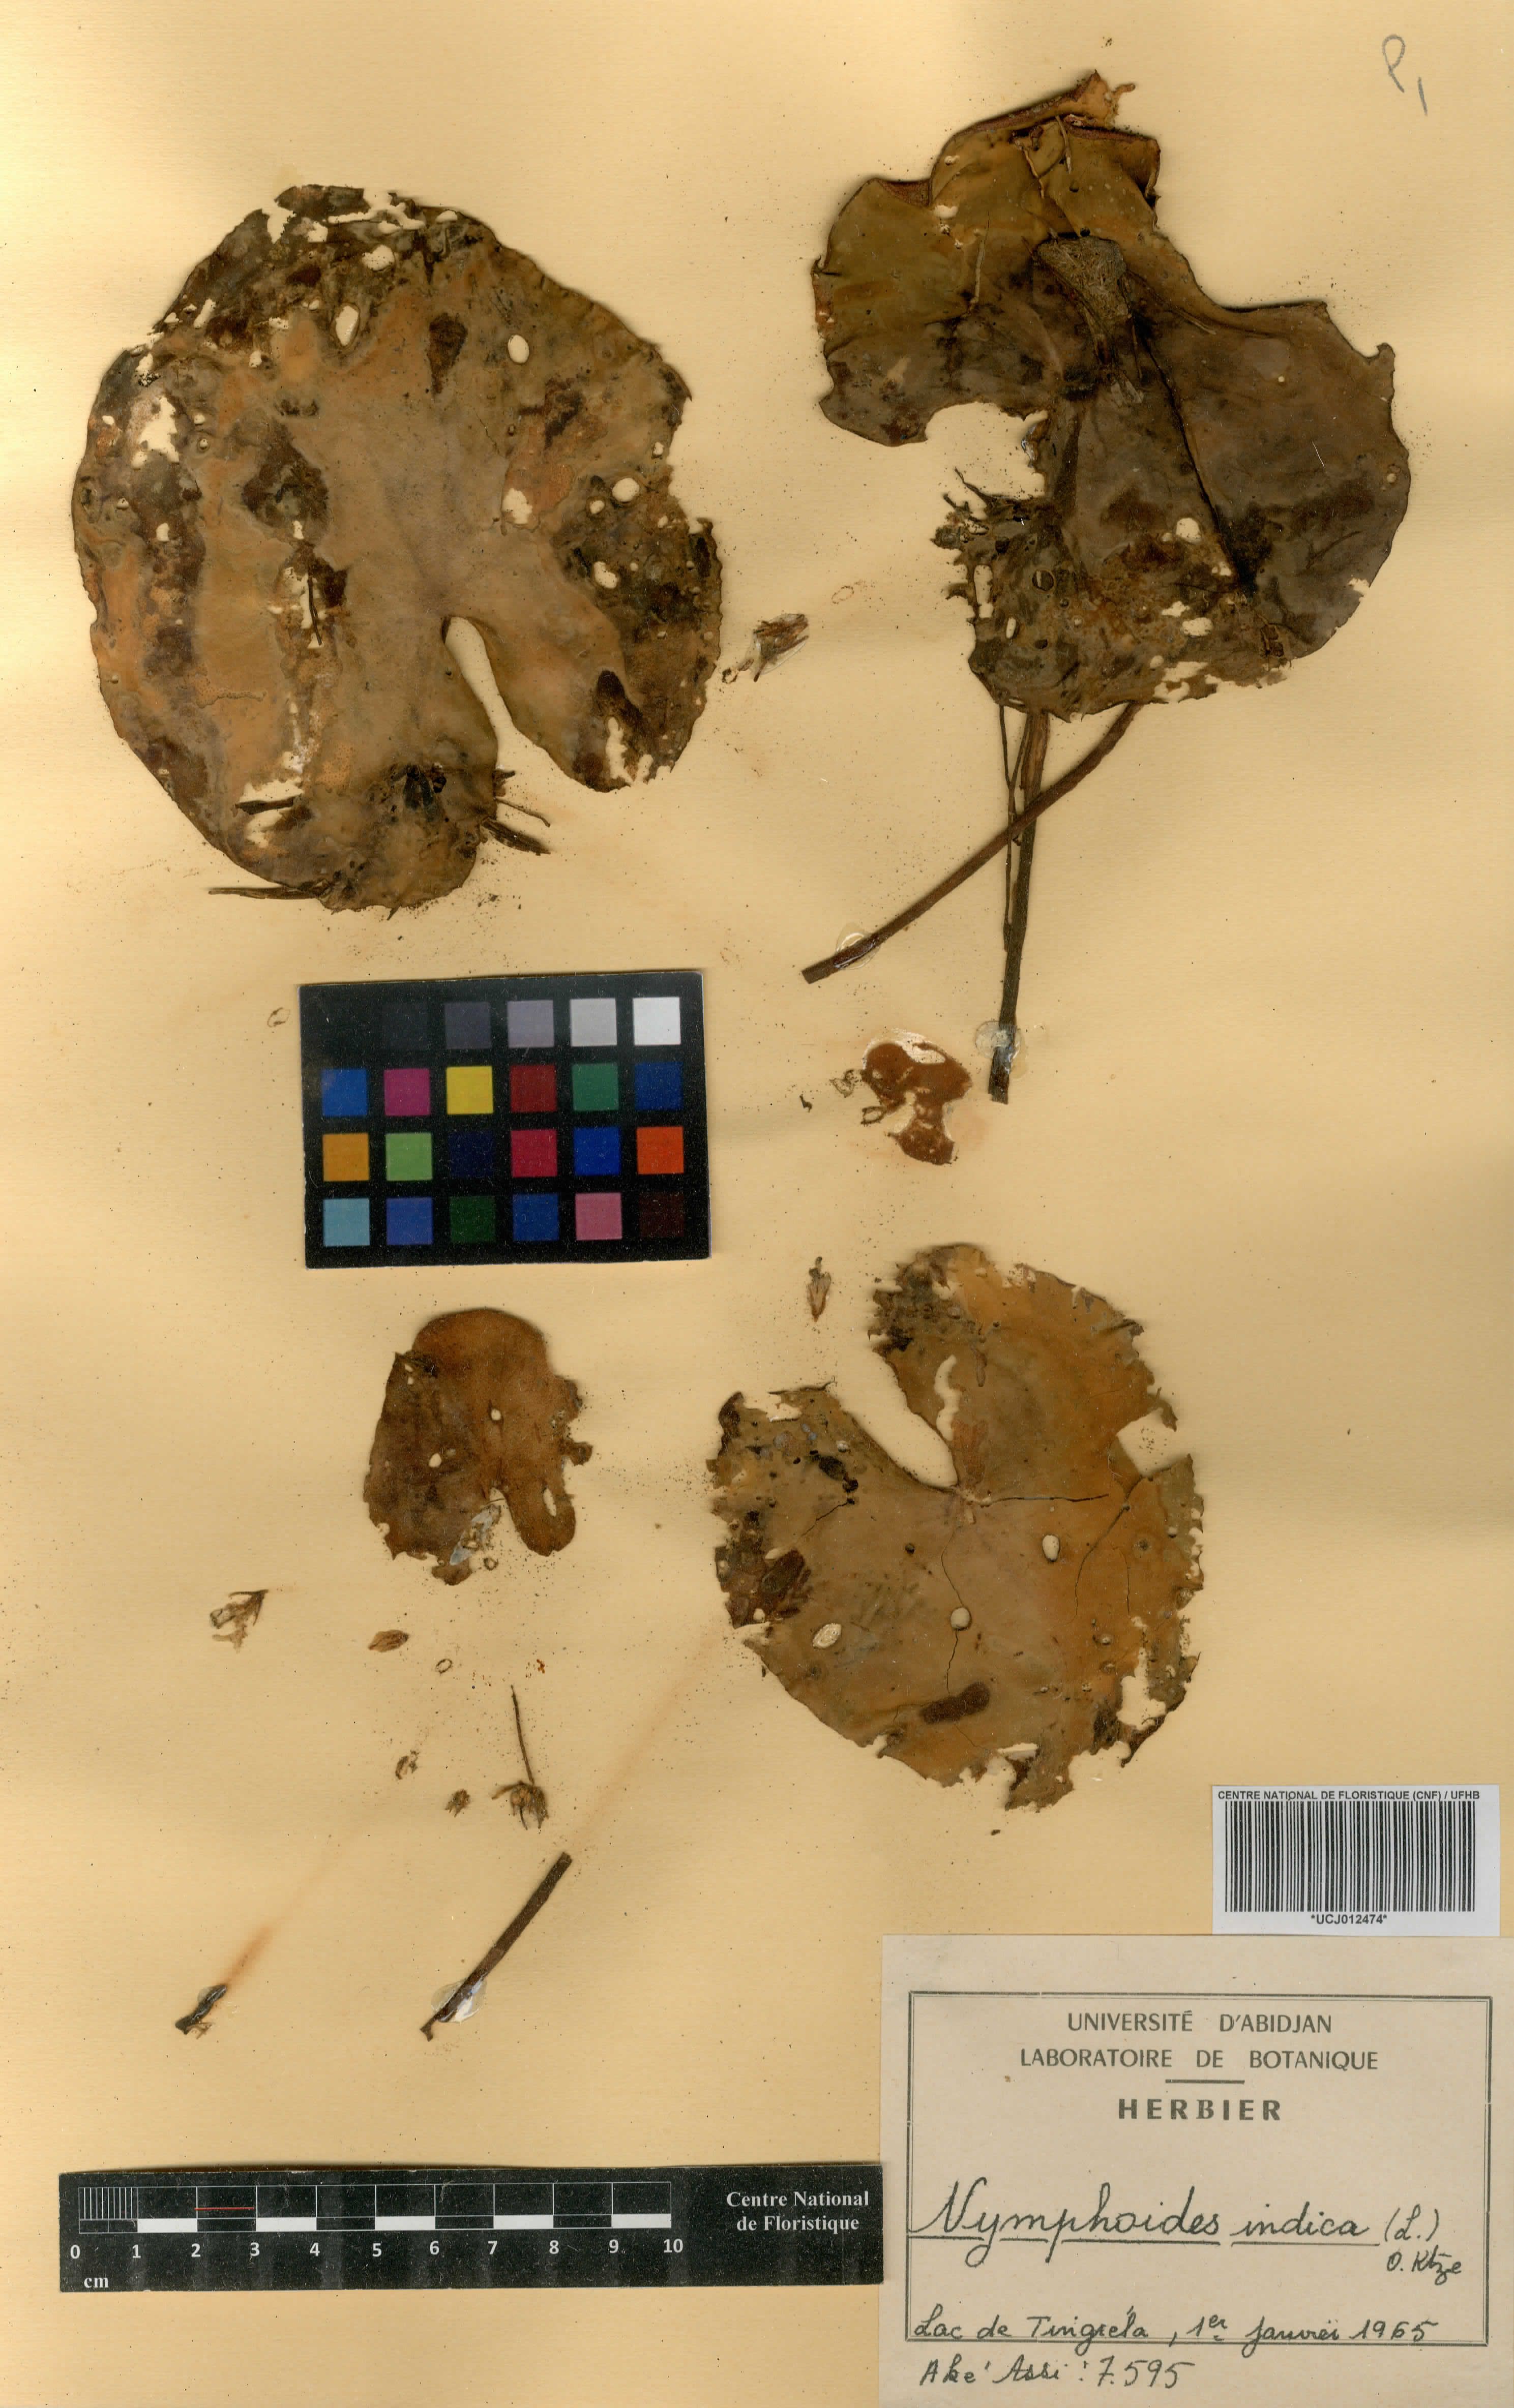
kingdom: Plantae
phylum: Tracheophyta
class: Magnoliopsida
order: Asterales
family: Menyanthaceae
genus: Nymphoides
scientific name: Nymphoides indica
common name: Water-snowflake
